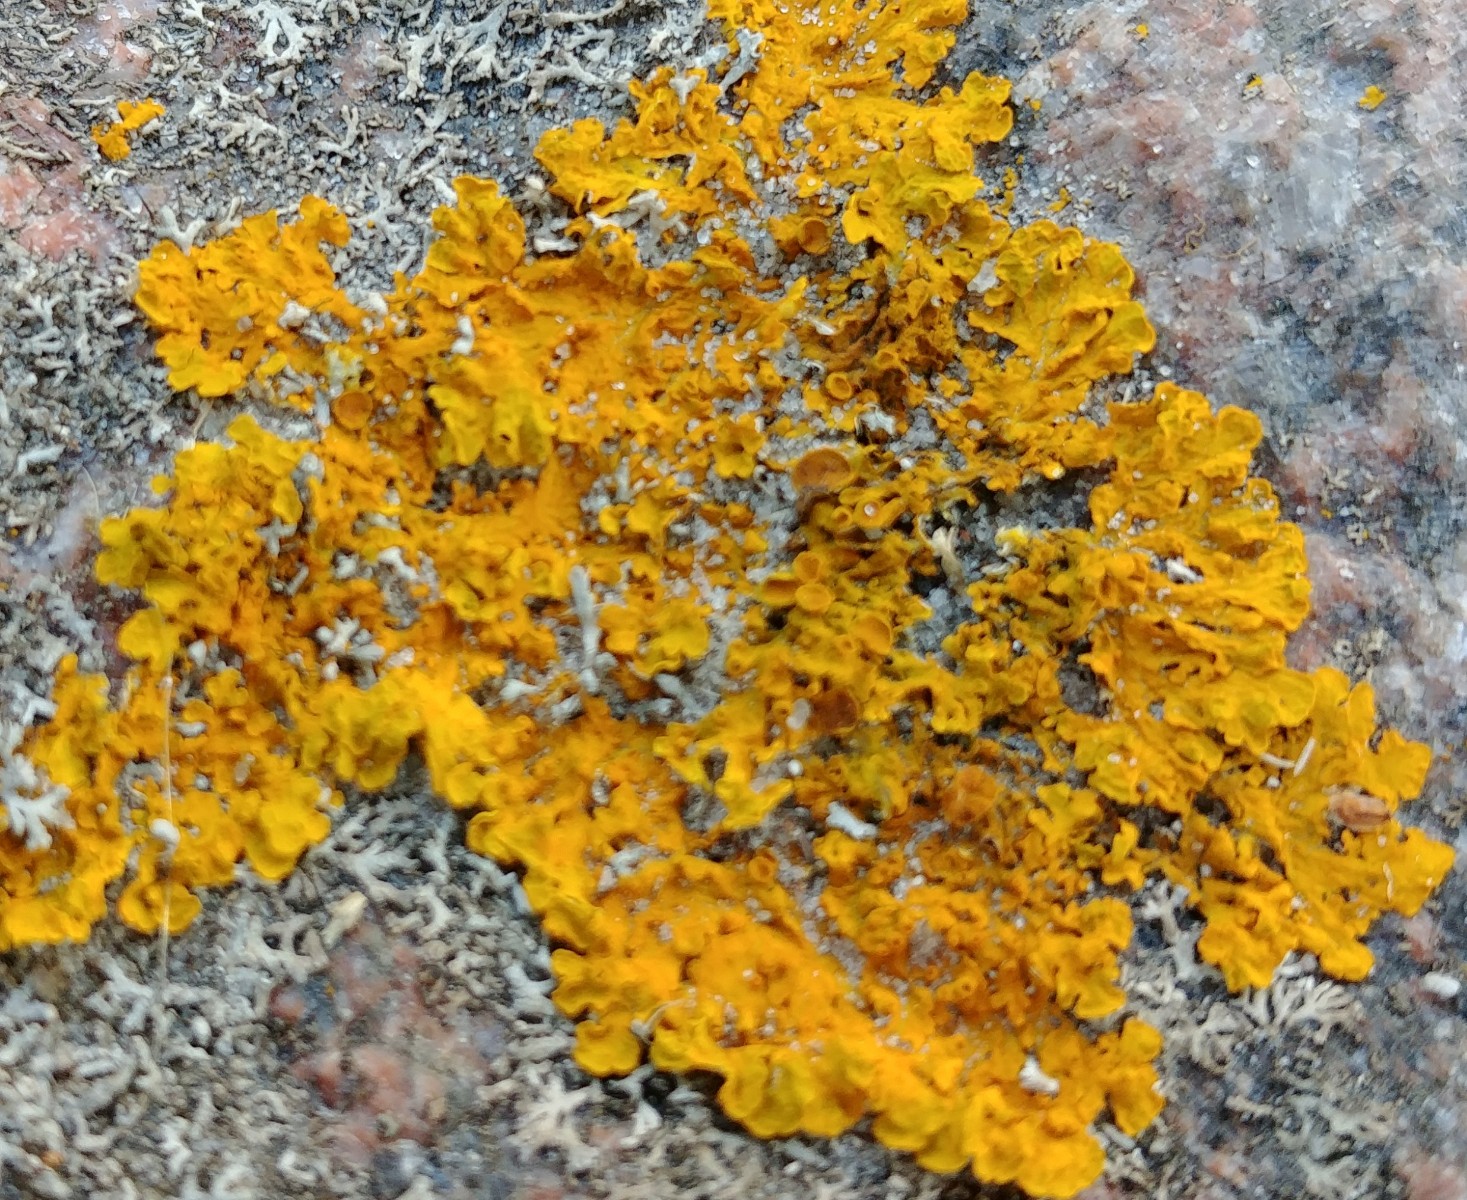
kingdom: Fungi
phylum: Ascomycota
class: Lecanoromycetes
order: Teloschistales
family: Teloschistaceae
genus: Xanthoria
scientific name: Xanthoria parietina
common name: almindelig væggelav
